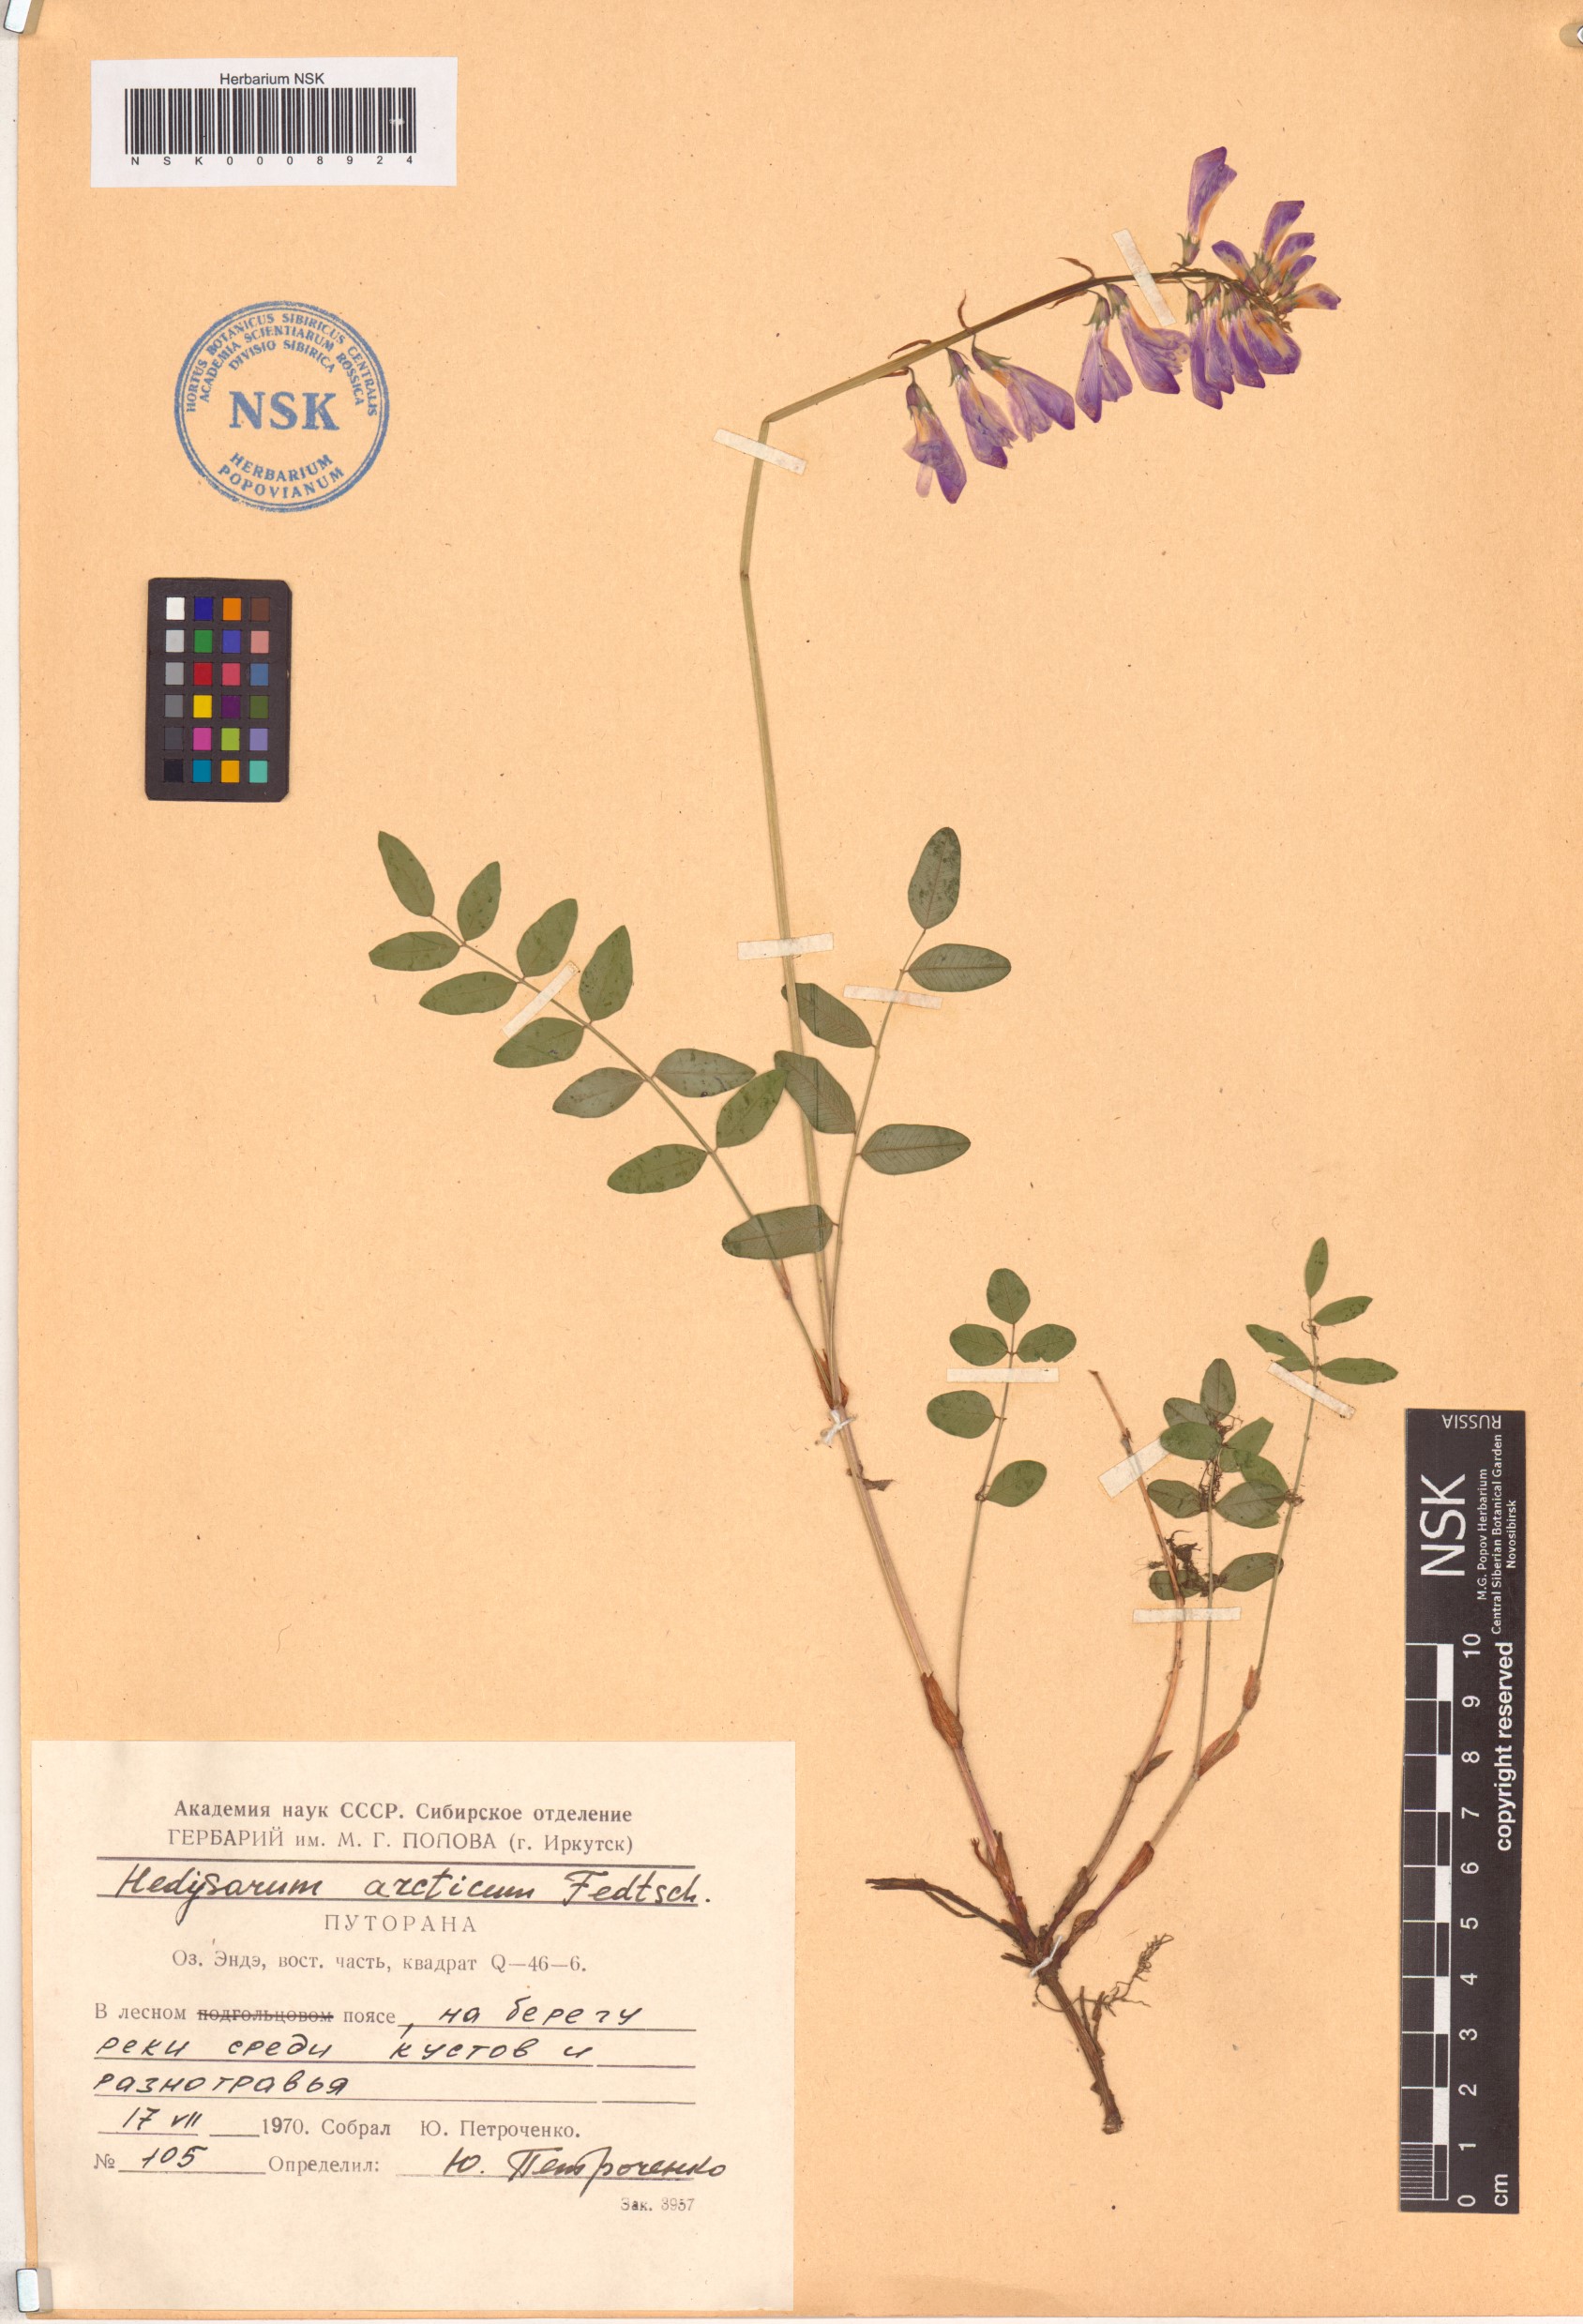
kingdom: Plantae
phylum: Tracheophyta
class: Magnoliopsida
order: Fabales
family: Fabaceae
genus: Hedysarum
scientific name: Hedysarum hedysaroides
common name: Alpine french-honeysuckle
